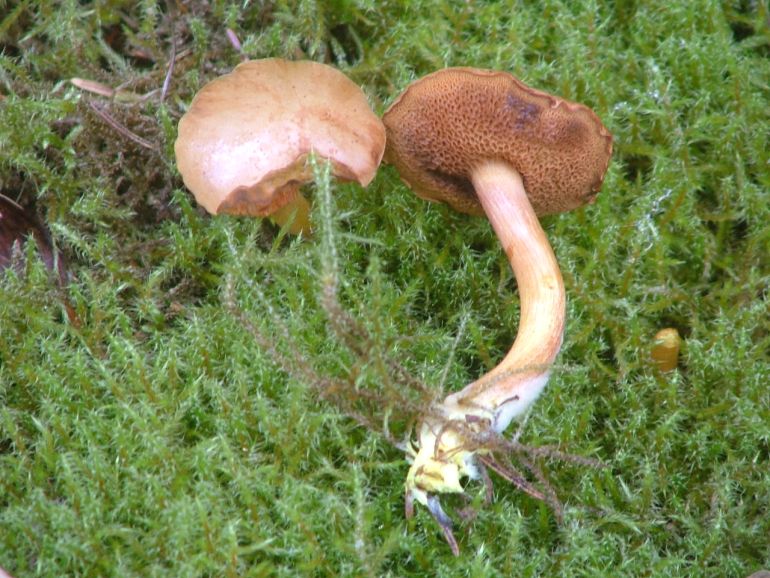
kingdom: Fungi
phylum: Basidiomycota
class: Agaricomycetes
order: Boletales
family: Boletaceae
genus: Chalciporus
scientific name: Chalciporus piperatus
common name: peberrørhat
